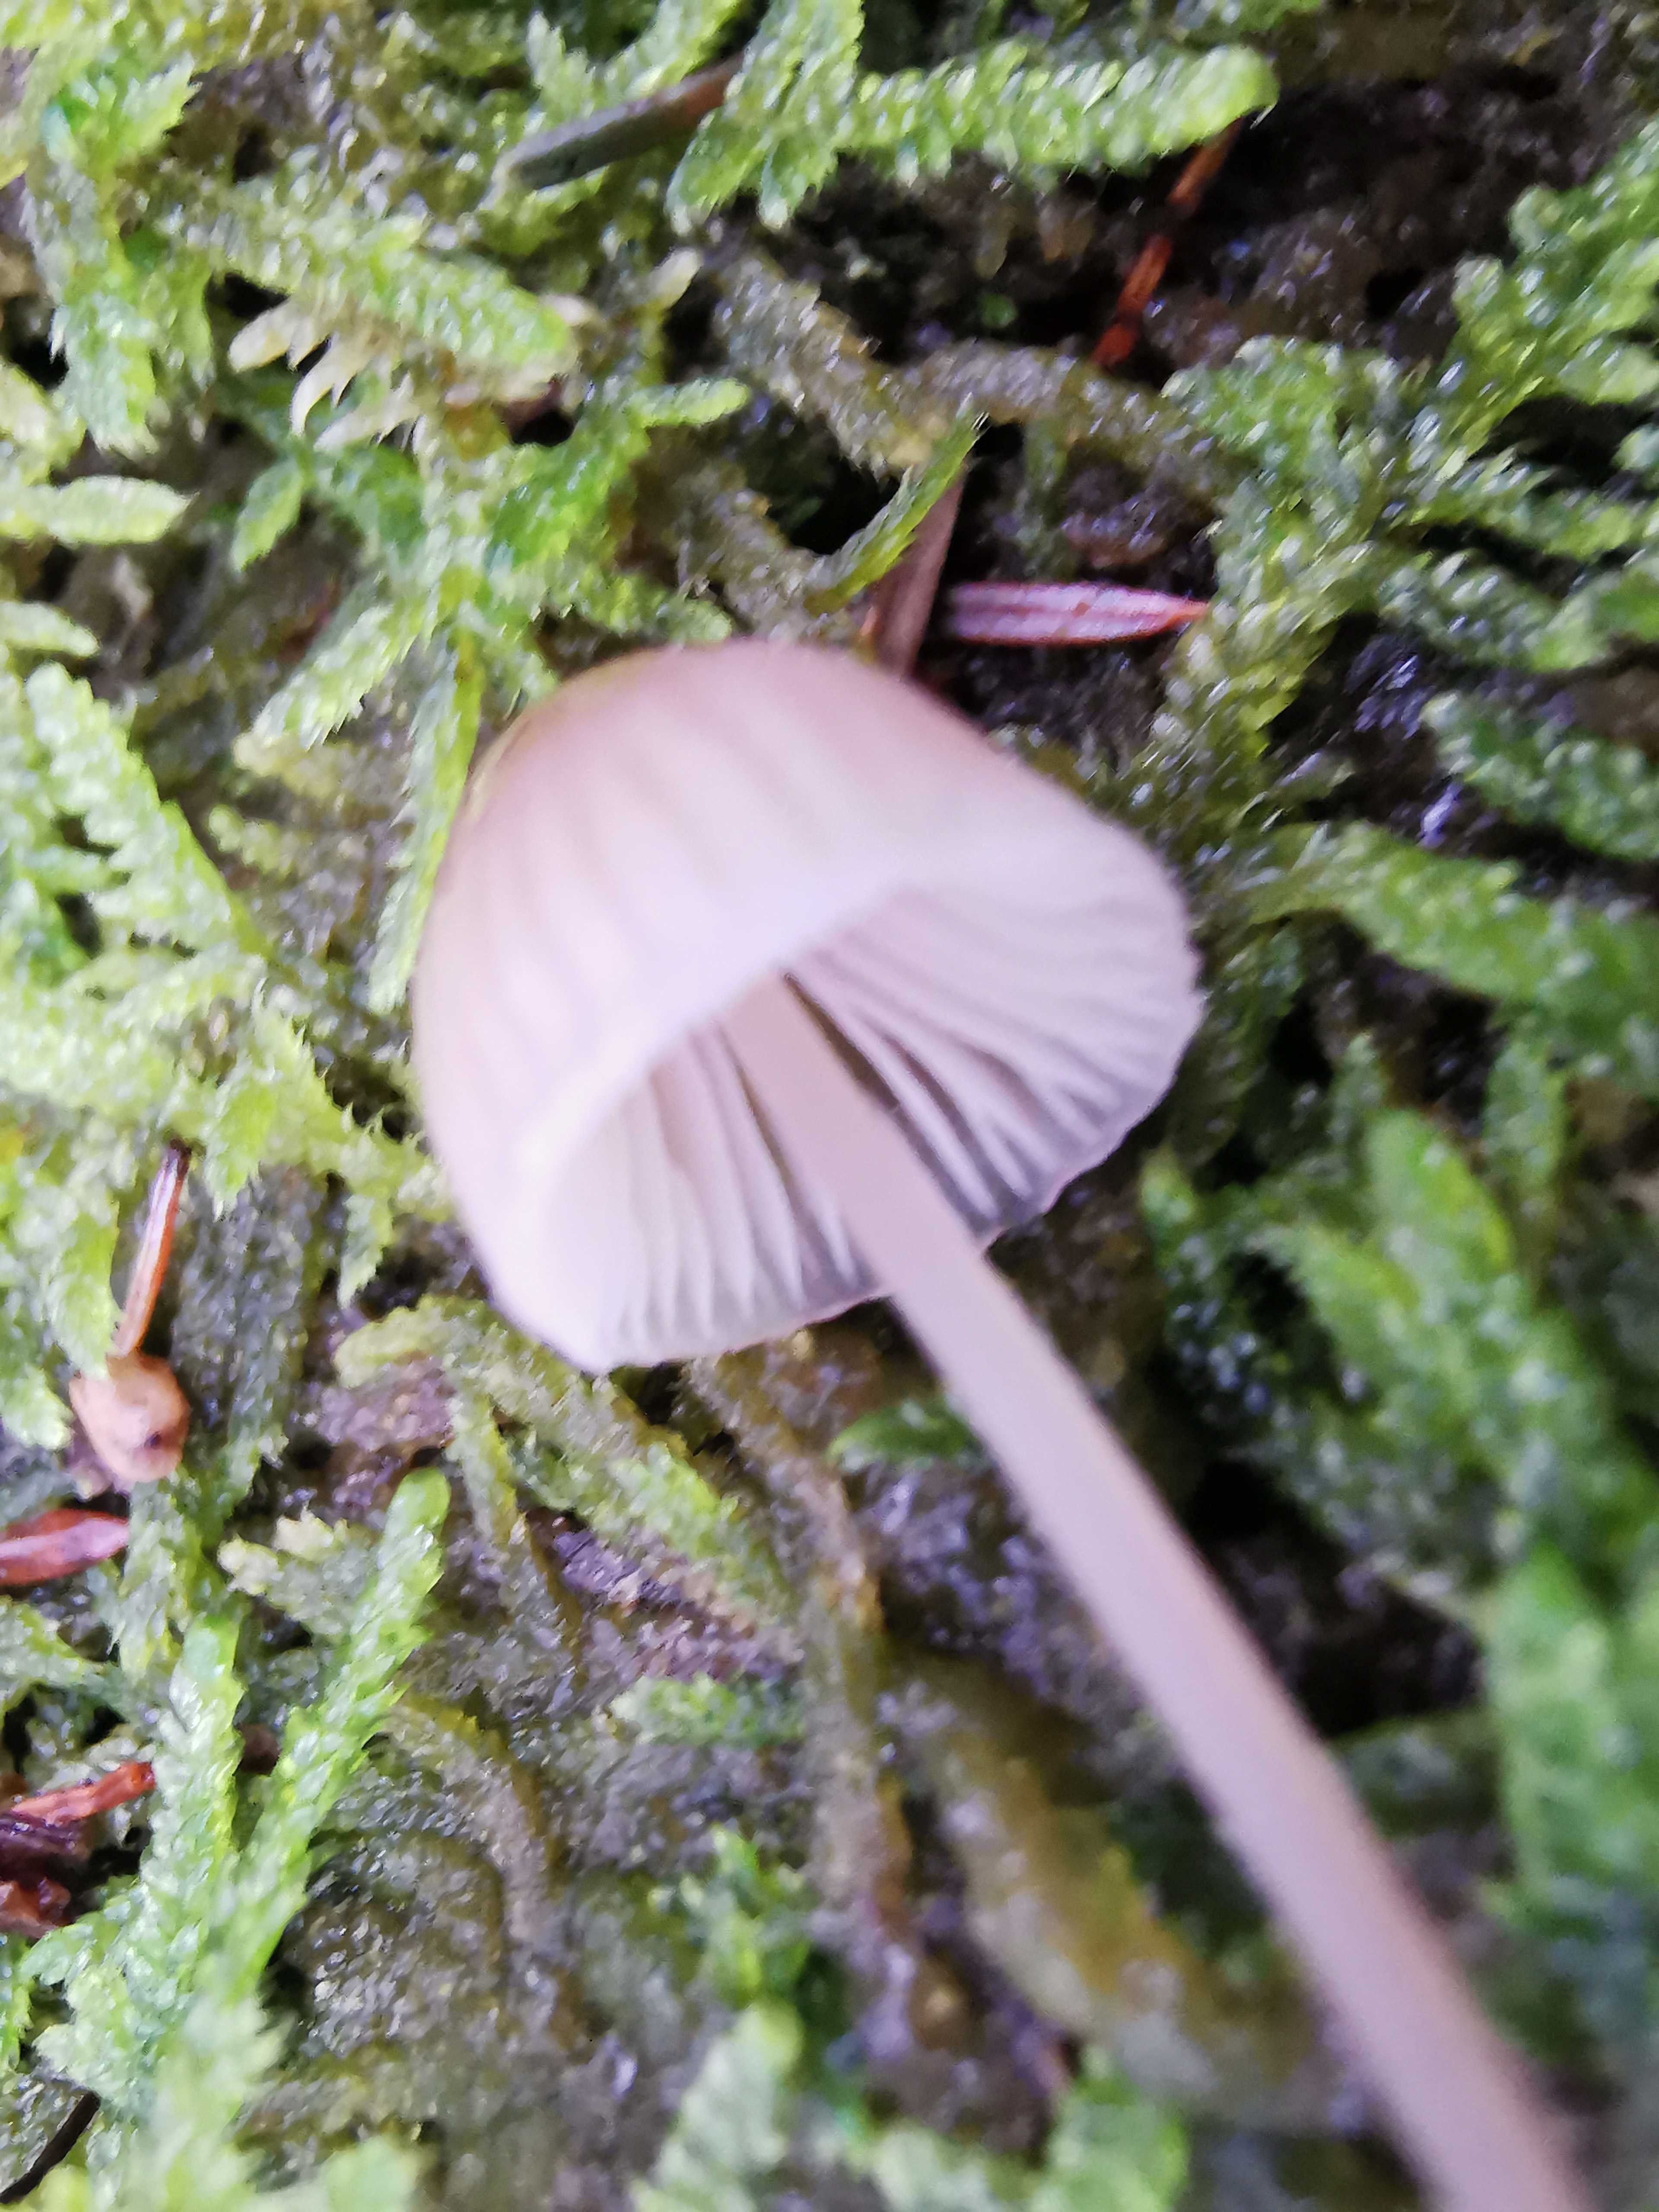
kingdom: Fungi
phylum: Basidiomycota
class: Agaricomycetes
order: Agaricales
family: Mycenaceae
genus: Mycena
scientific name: Mycena metata
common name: rødlig huesvamp
